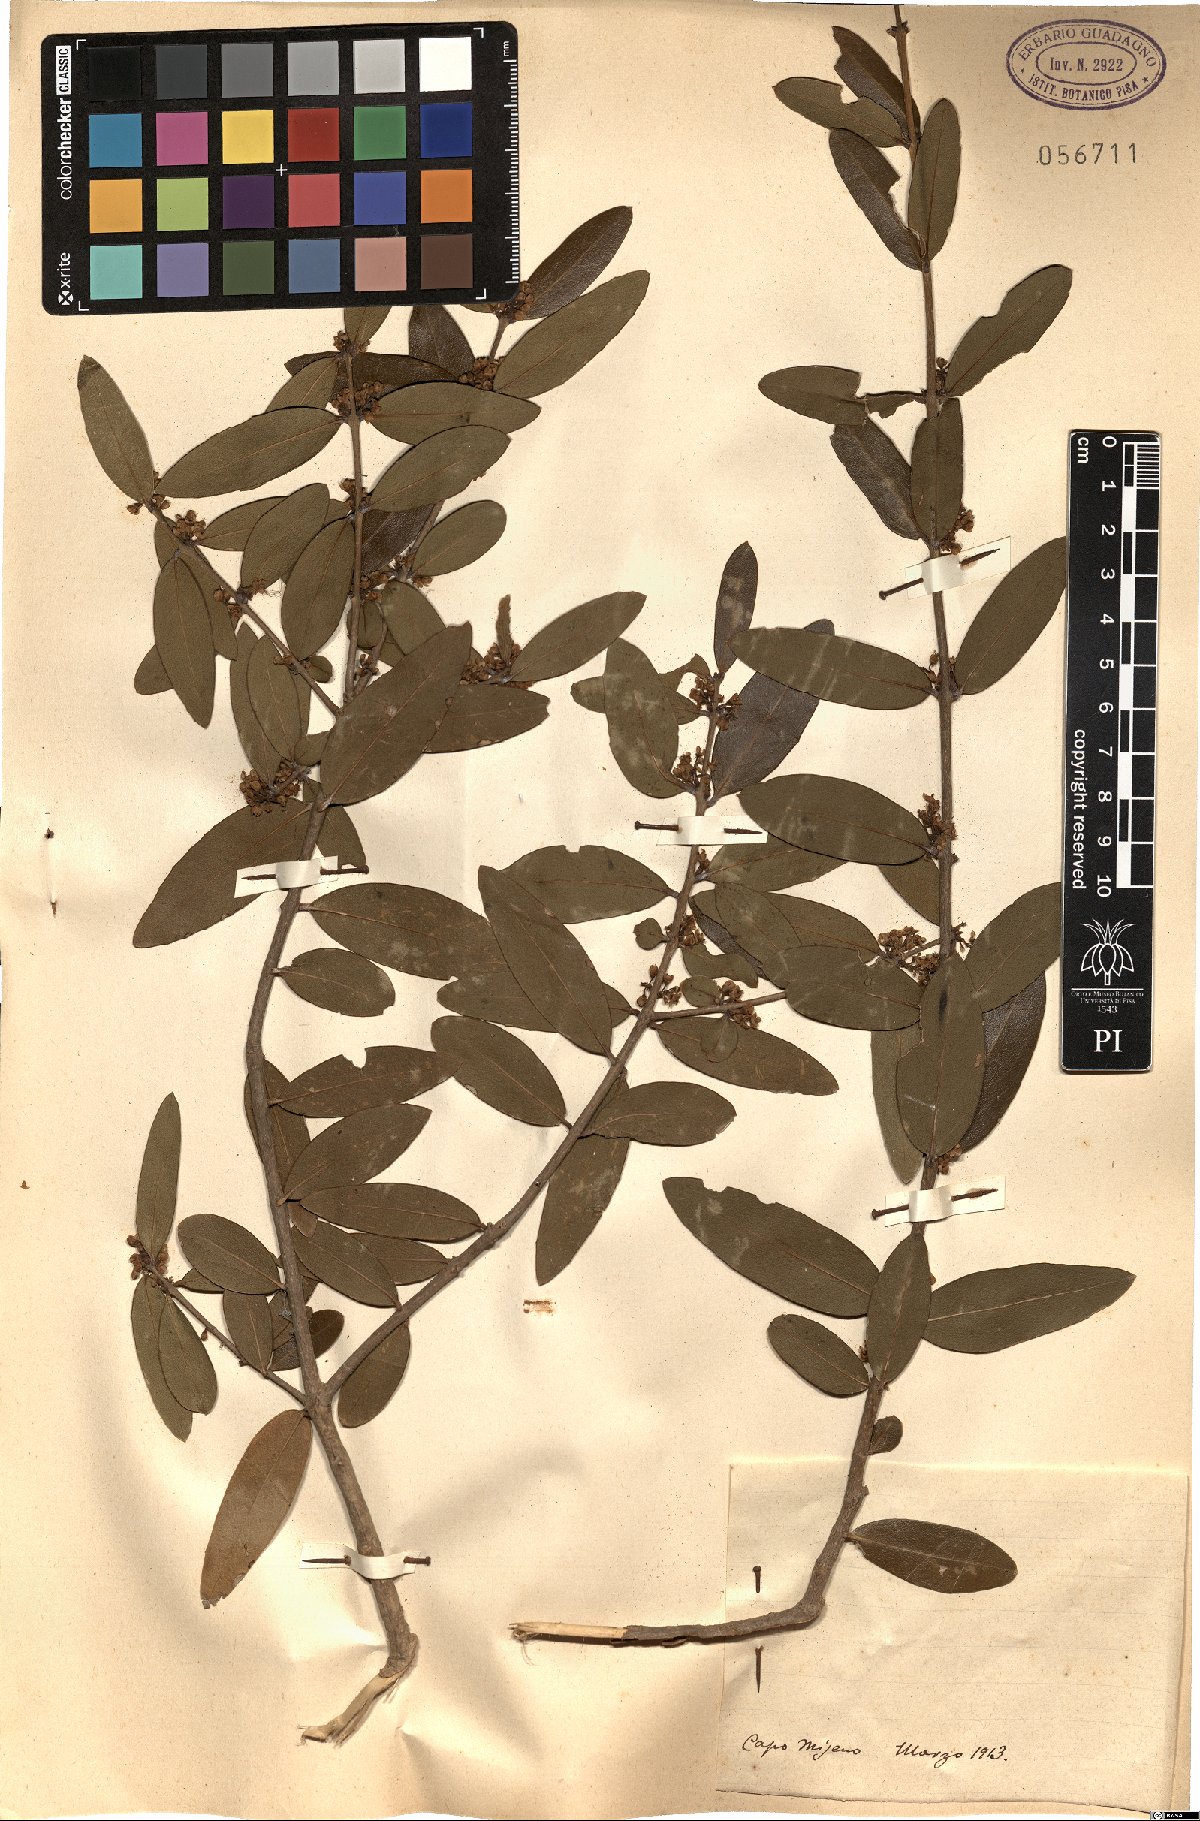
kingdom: Plantae
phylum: Tracheophyta
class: Magnoliopsida
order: Lamiales
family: Oleaceae
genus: Phillyrea
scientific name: Phillyrea
